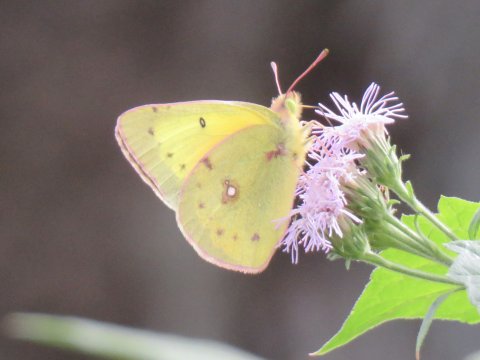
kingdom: Animalia
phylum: Arthropoda
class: Insecta
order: Lepidoptera
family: Pieridae
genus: Colias
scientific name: Colias eurytheme
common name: Orange Sulphur
